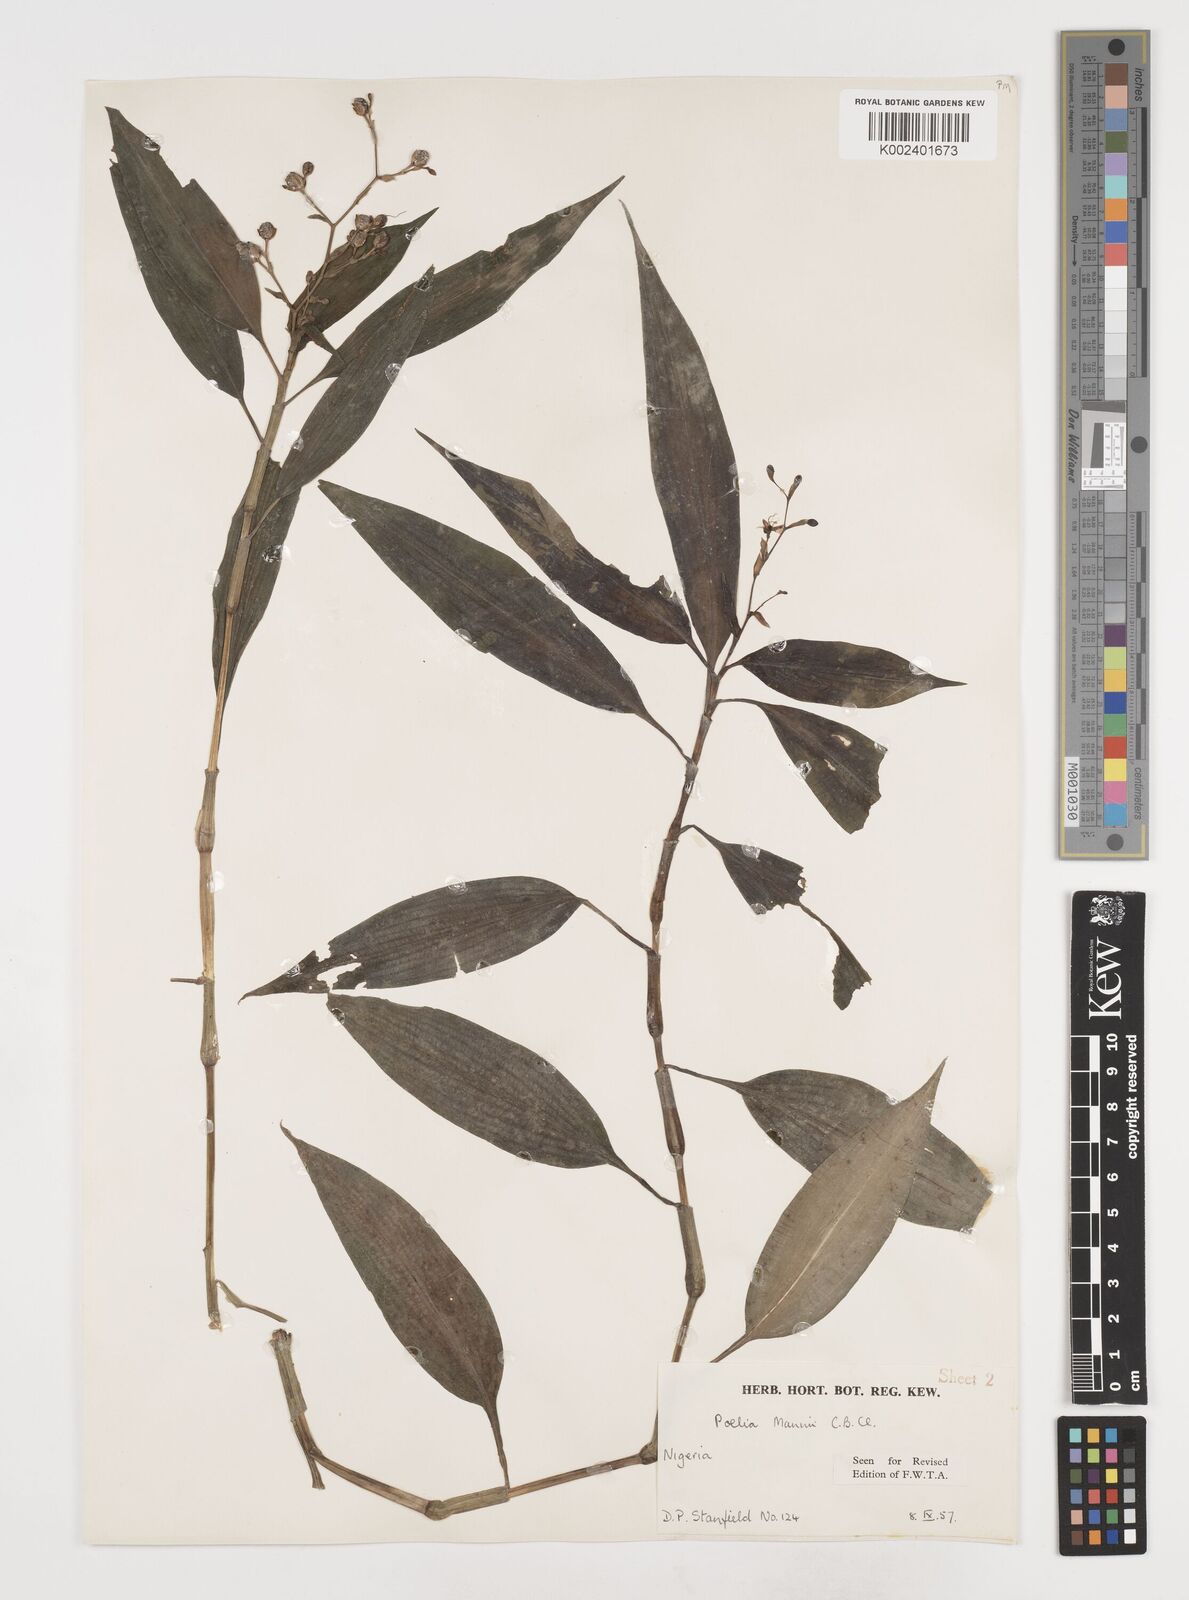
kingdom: Plantae
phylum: Tracheophyta
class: Liliopsida
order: Commelinales
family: Commelinaceae
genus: Pollia
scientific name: Pollia mannii
